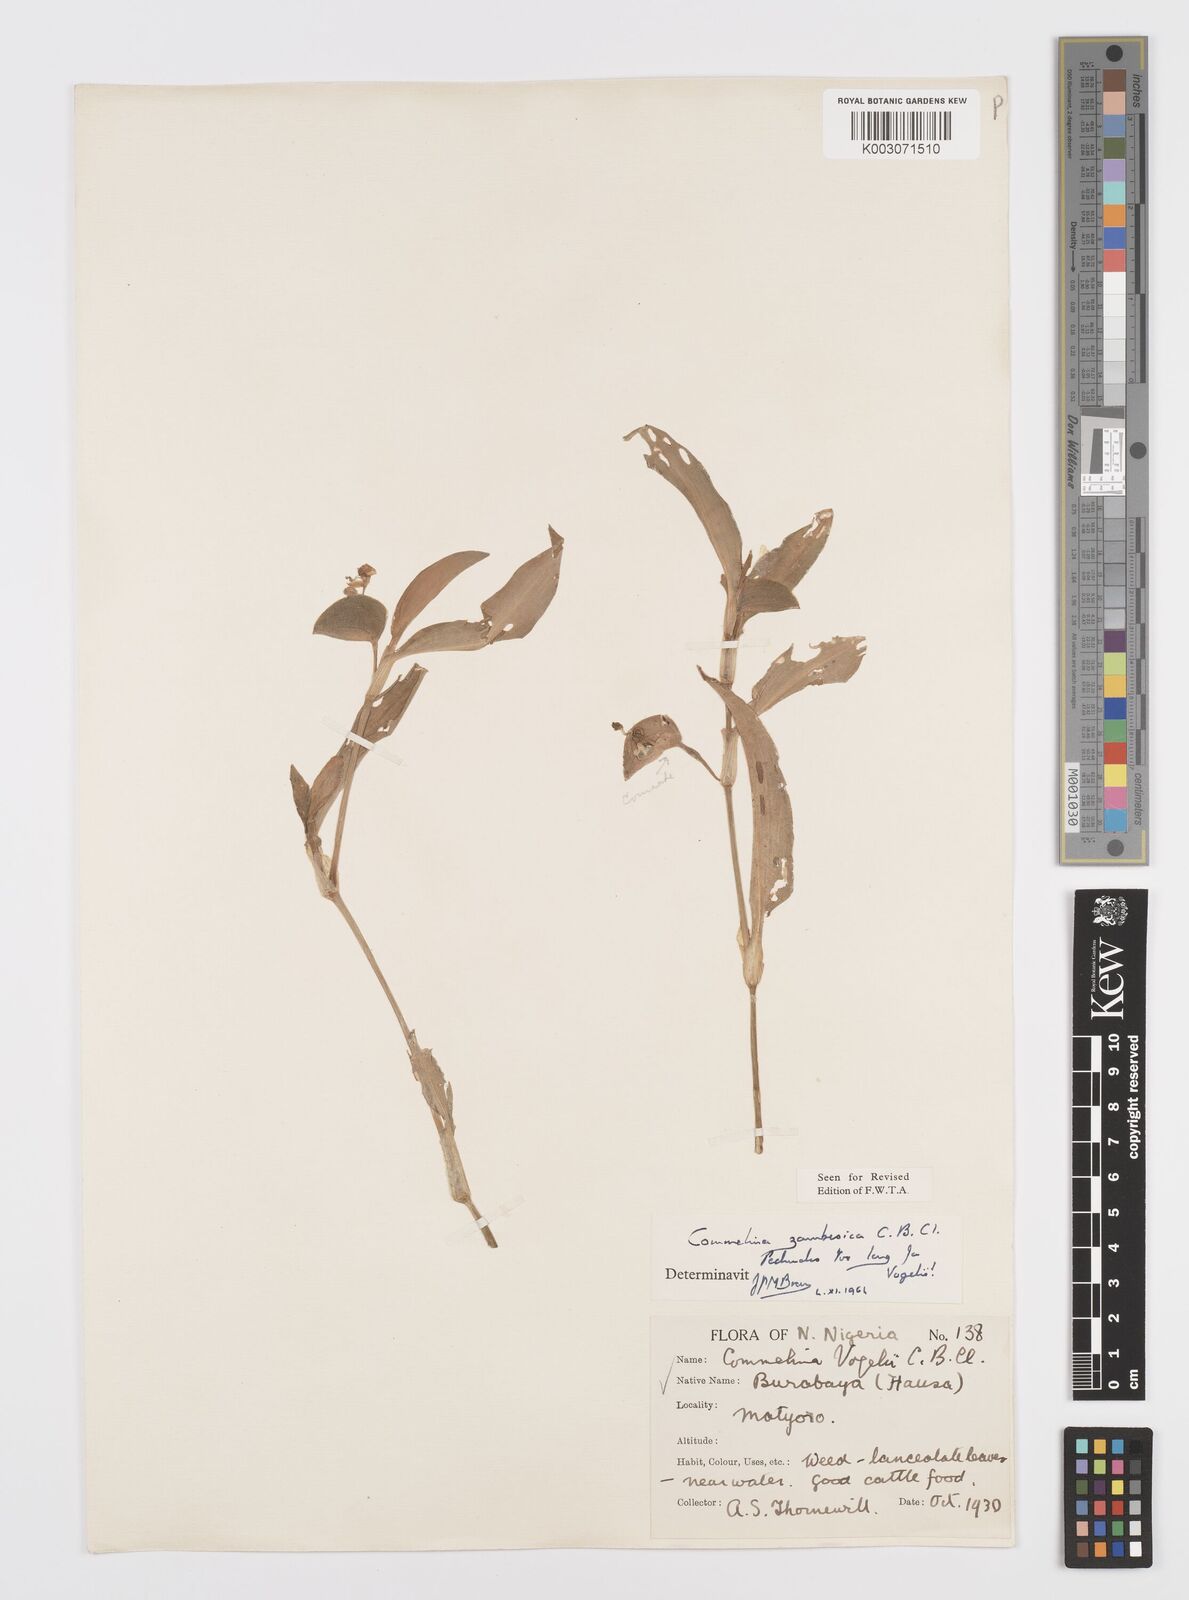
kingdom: Plantae
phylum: Tracheophyta
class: Liliopsida
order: Commelinales
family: Commelinaceae
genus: Commelina
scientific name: Commelina zambesica
